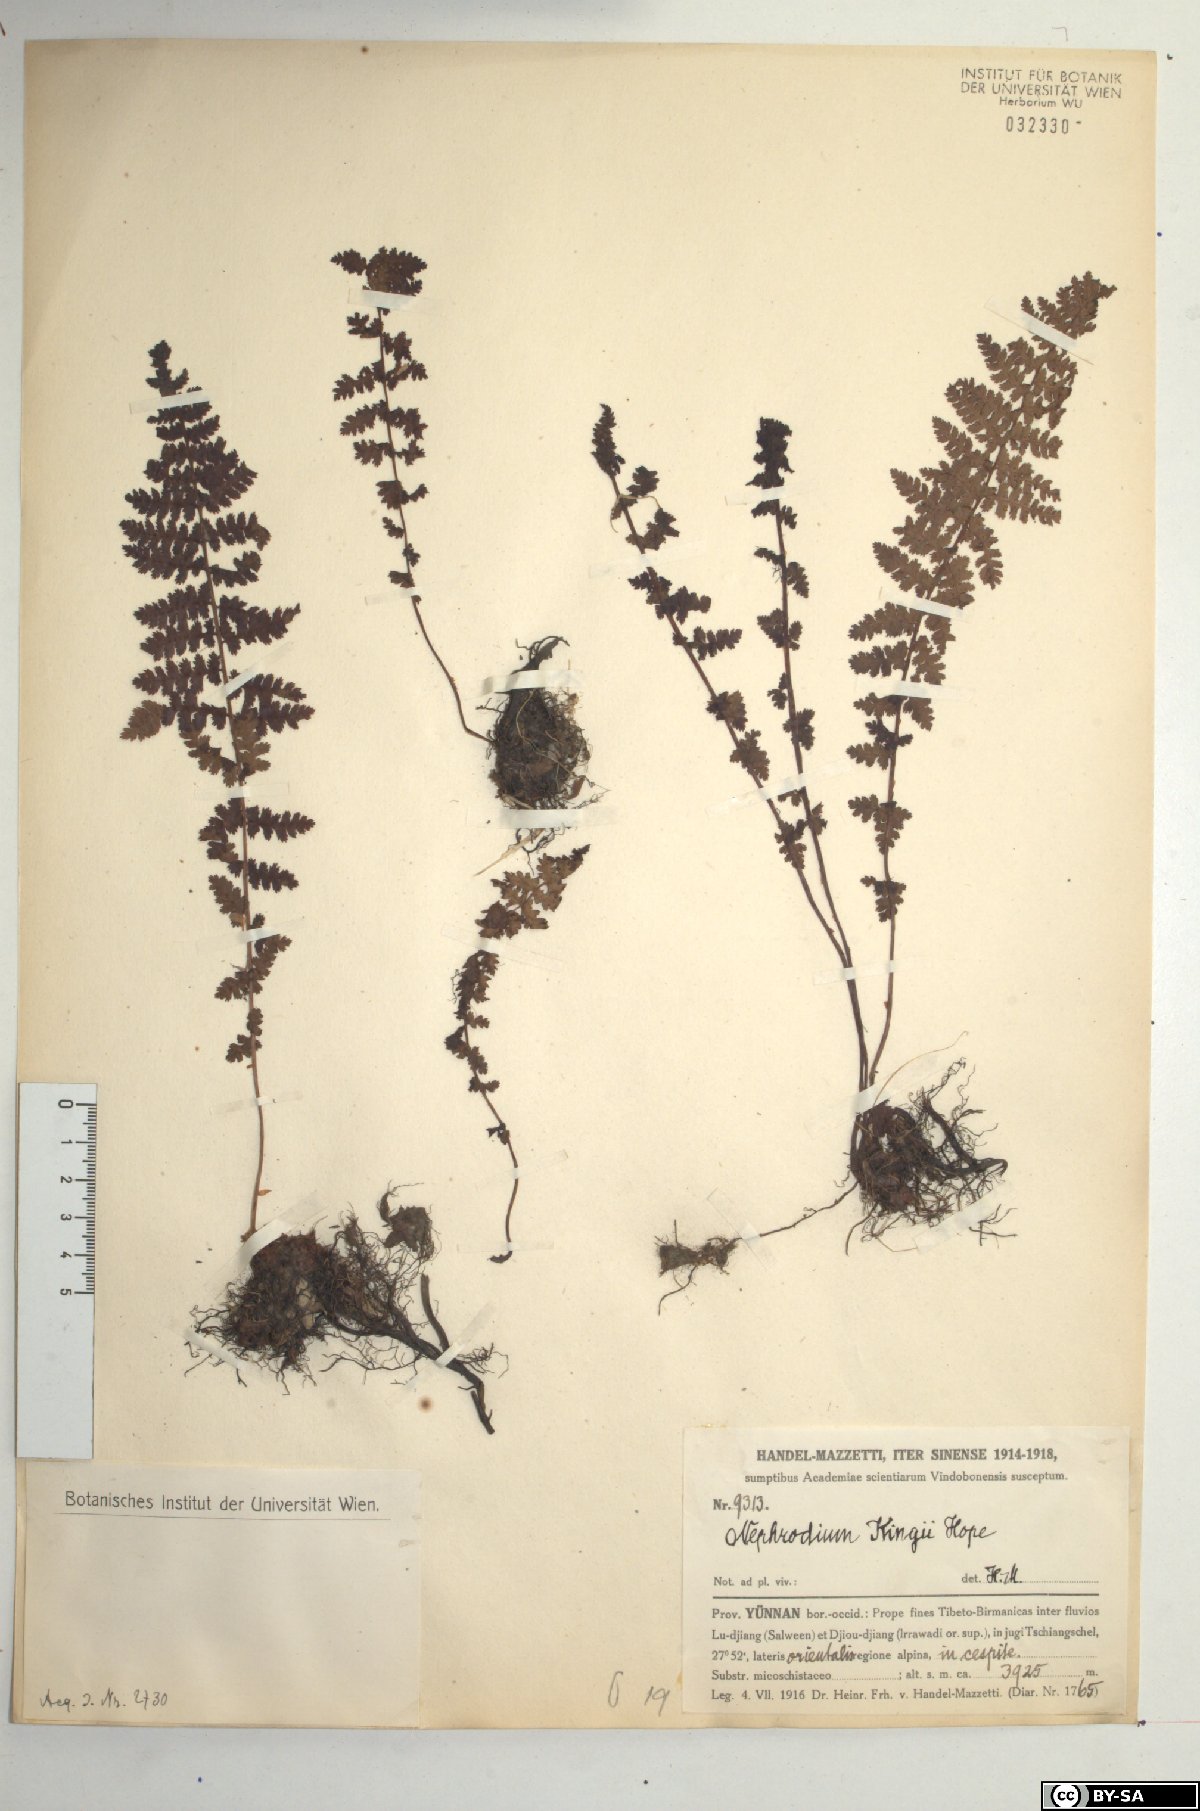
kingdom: Plantae
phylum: Tracheophyta
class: Polypodiopsida
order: Polypodiales
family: Dryopteridaceae
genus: Dryopteris
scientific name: Dryopteris acutodentata
